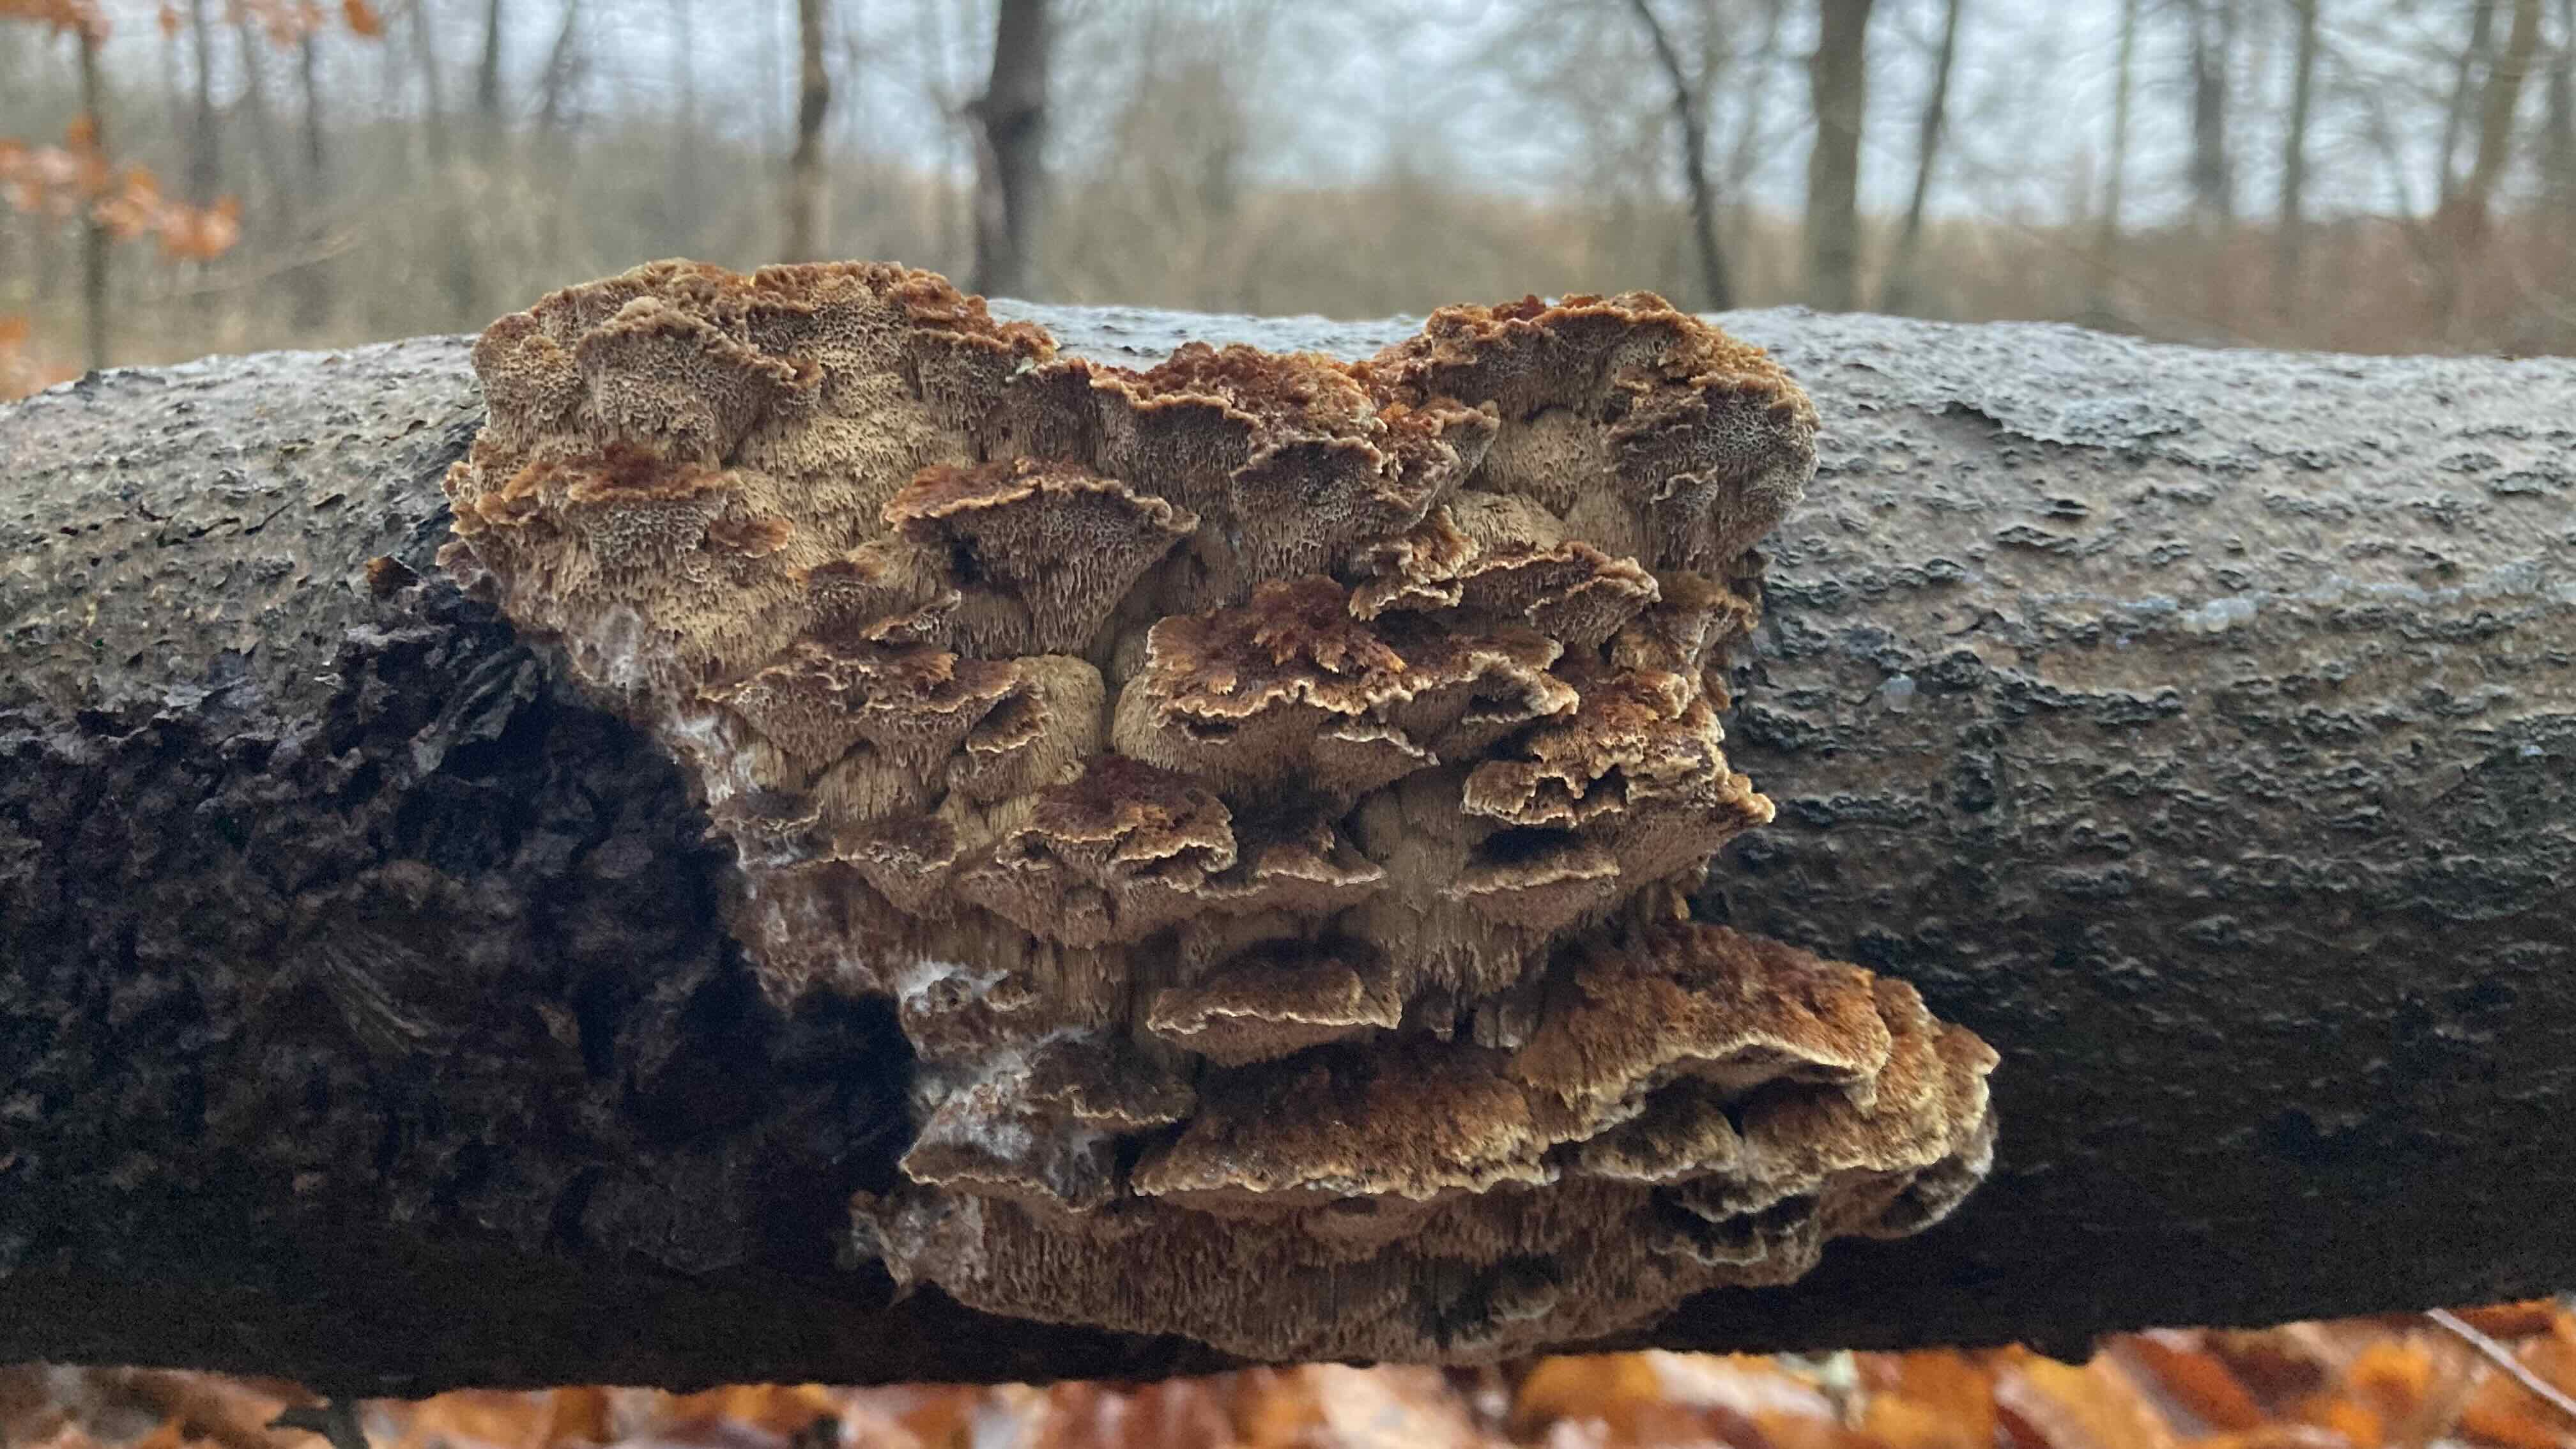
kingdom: Fungi
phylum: Basidiomycota
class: Agaricomycetes
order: Hymenochaetales
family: Hymenochaetaceae
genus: Mensularia
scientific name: Mensularia nodulosa
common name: bøge-spejlporesvamp
